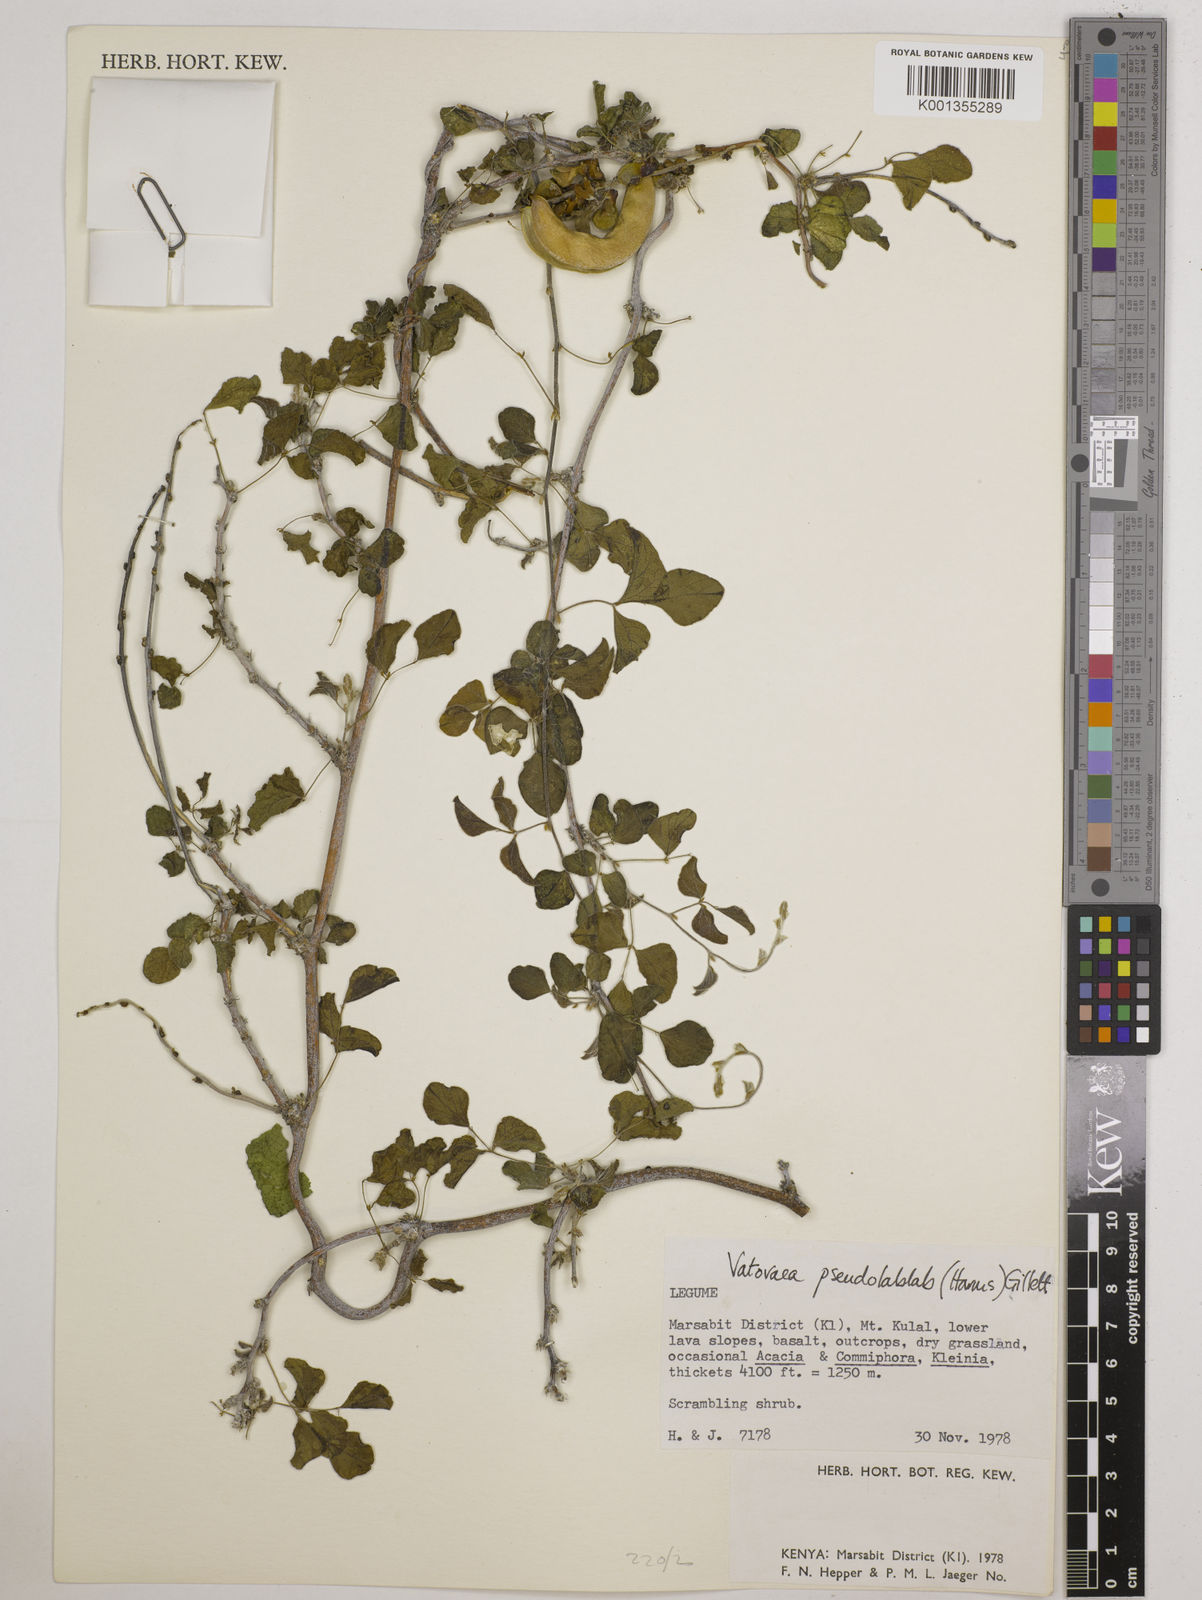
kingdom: Plantae
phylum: Tracheophyta
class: Magnoliopsida
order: Fabales
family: Fabaceae
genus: Vatovaea
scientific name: Vatovaea pseudolablab
